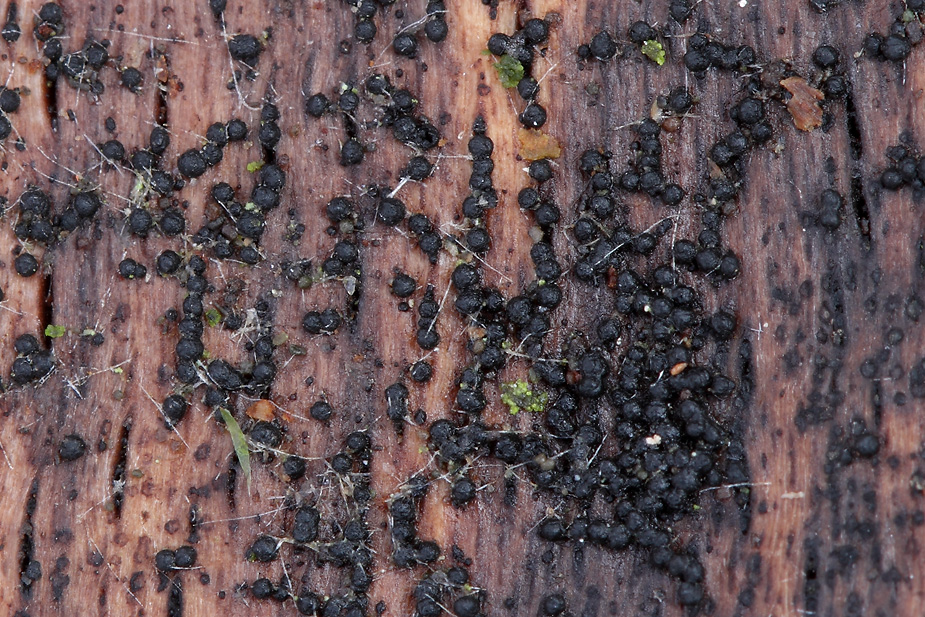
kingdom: Fungi
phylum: Ascomycota
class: Dothideomycetes
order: Pleosporales
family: Melanommataceae
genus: Melanomma
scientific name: Melanomma pulvis-pyrius
